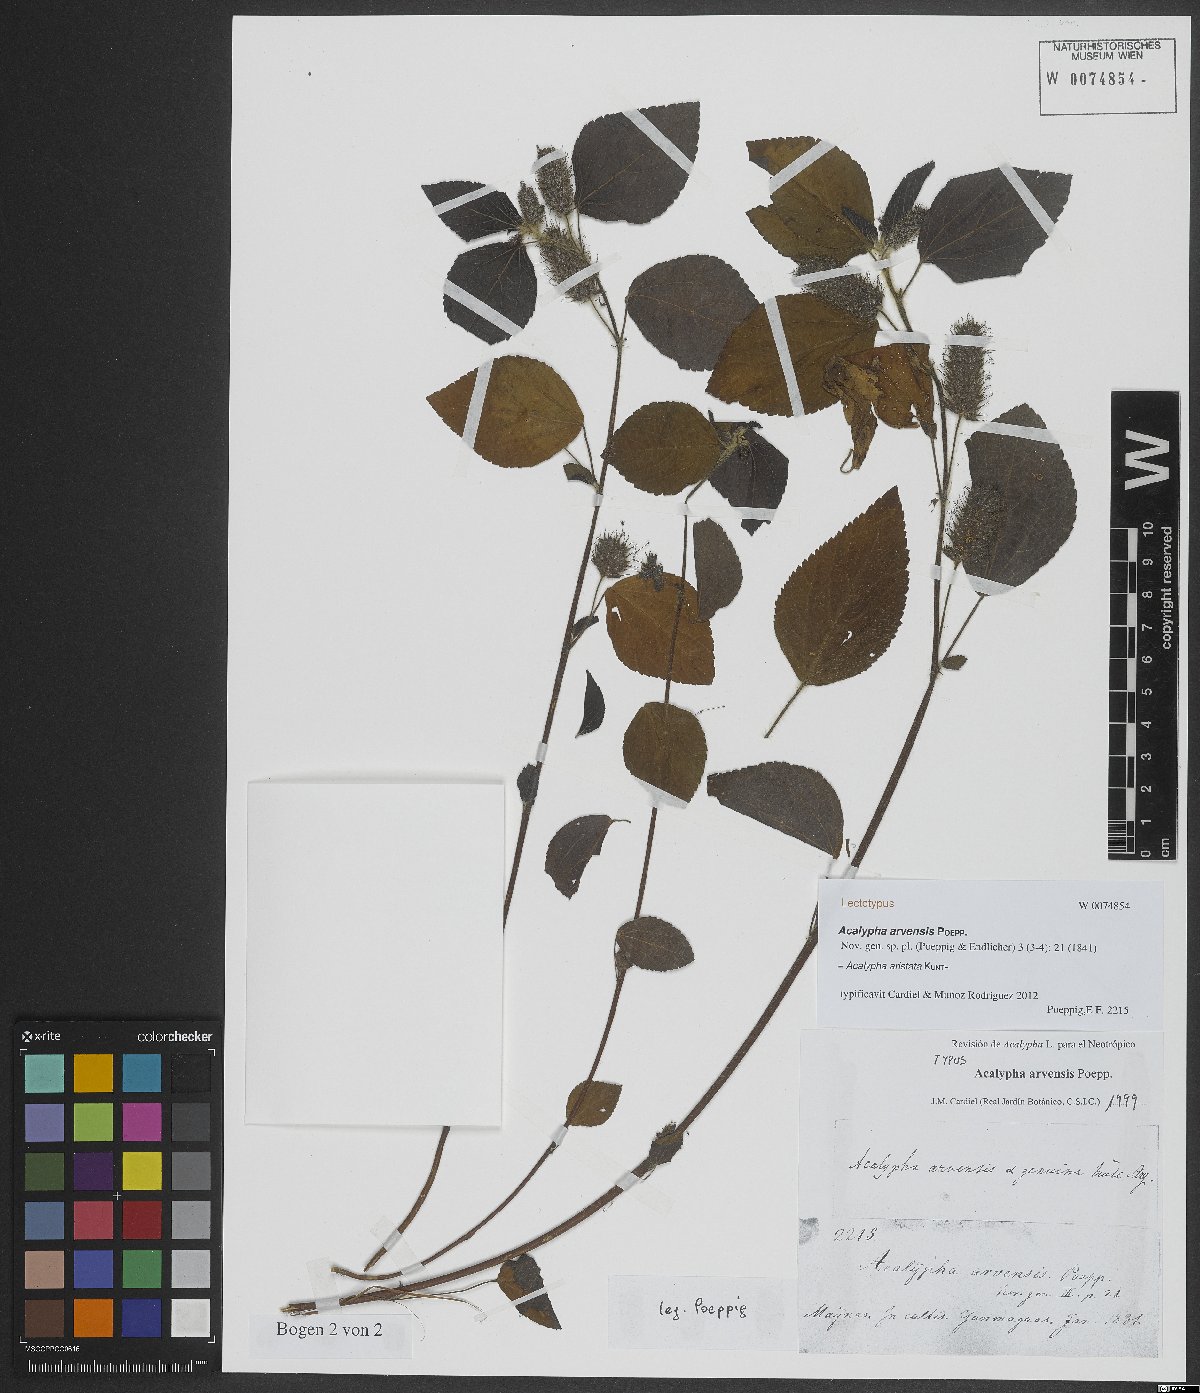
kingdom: Plantae
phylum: Tracheophyta
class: Magnoliopsida
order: Malpighiales
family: Euphorbiaceae
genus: Acalypha
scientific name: Acalypha alopecuroidea
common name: Foxtail copperleaf
